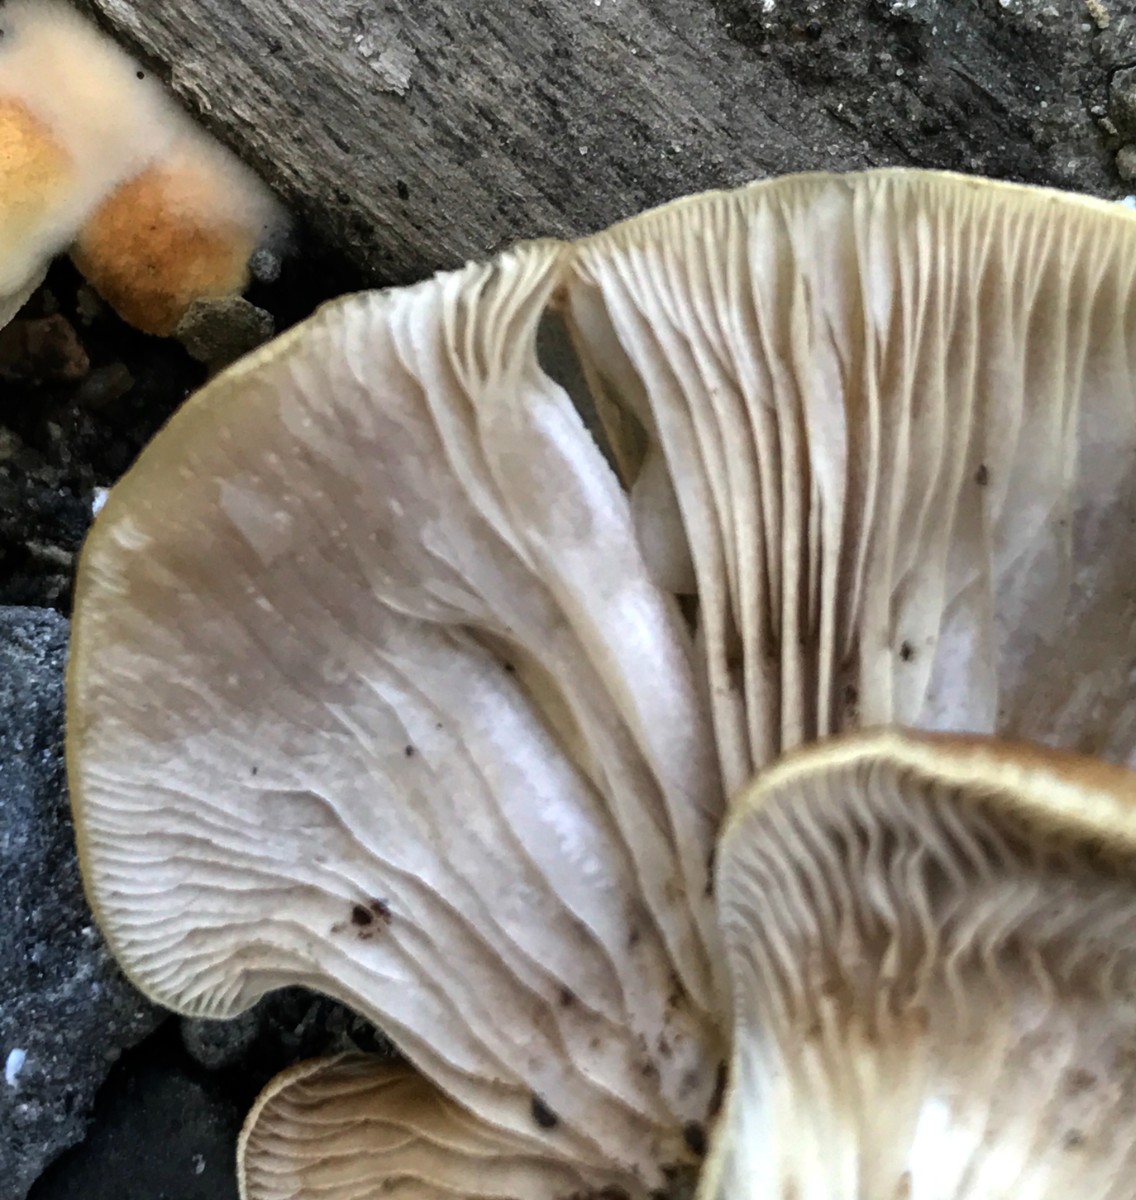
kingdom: Fungi
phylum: Basidiomycota
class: Agaricomycetes
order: Agaricales
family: Crepidotaceae
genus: Crepidotus
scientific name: Crepidotus mollis
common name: blød muslingesvamp
